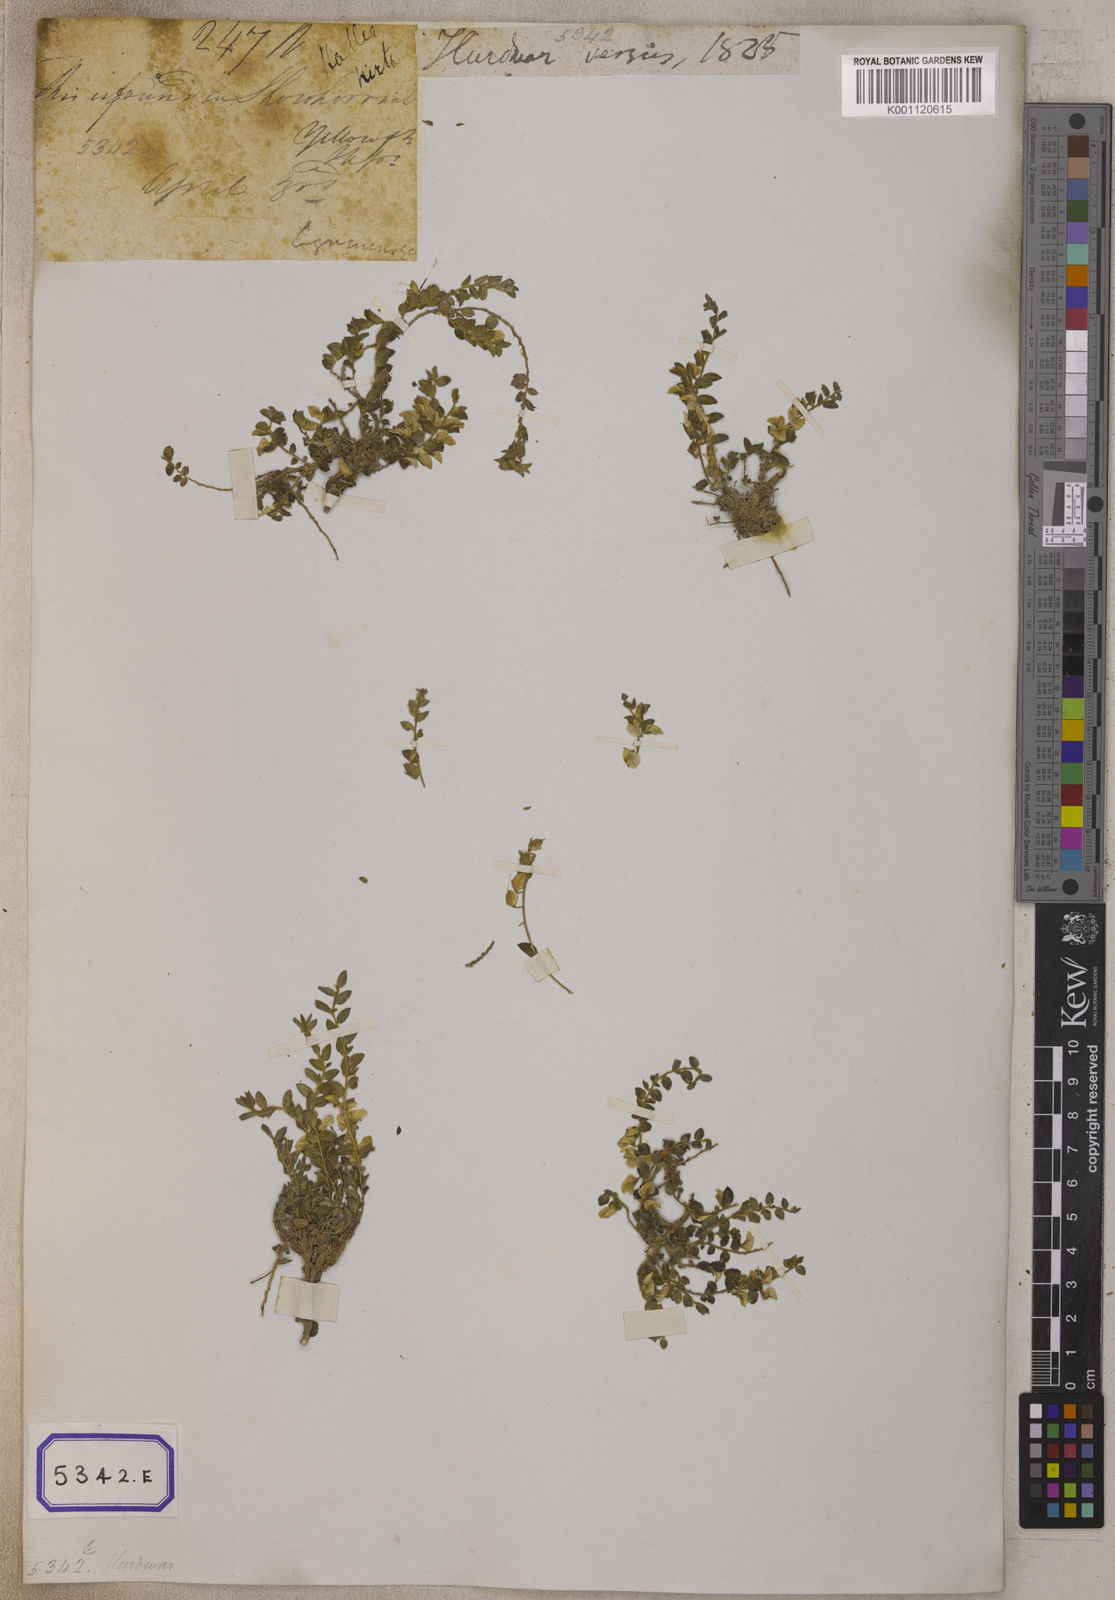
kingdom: Plantae
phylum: Tracheophyta
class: Magnoliopsida
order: Fabales
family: Fabaceae
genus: Crotalaria
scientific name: Crotalaria hebecarpa
